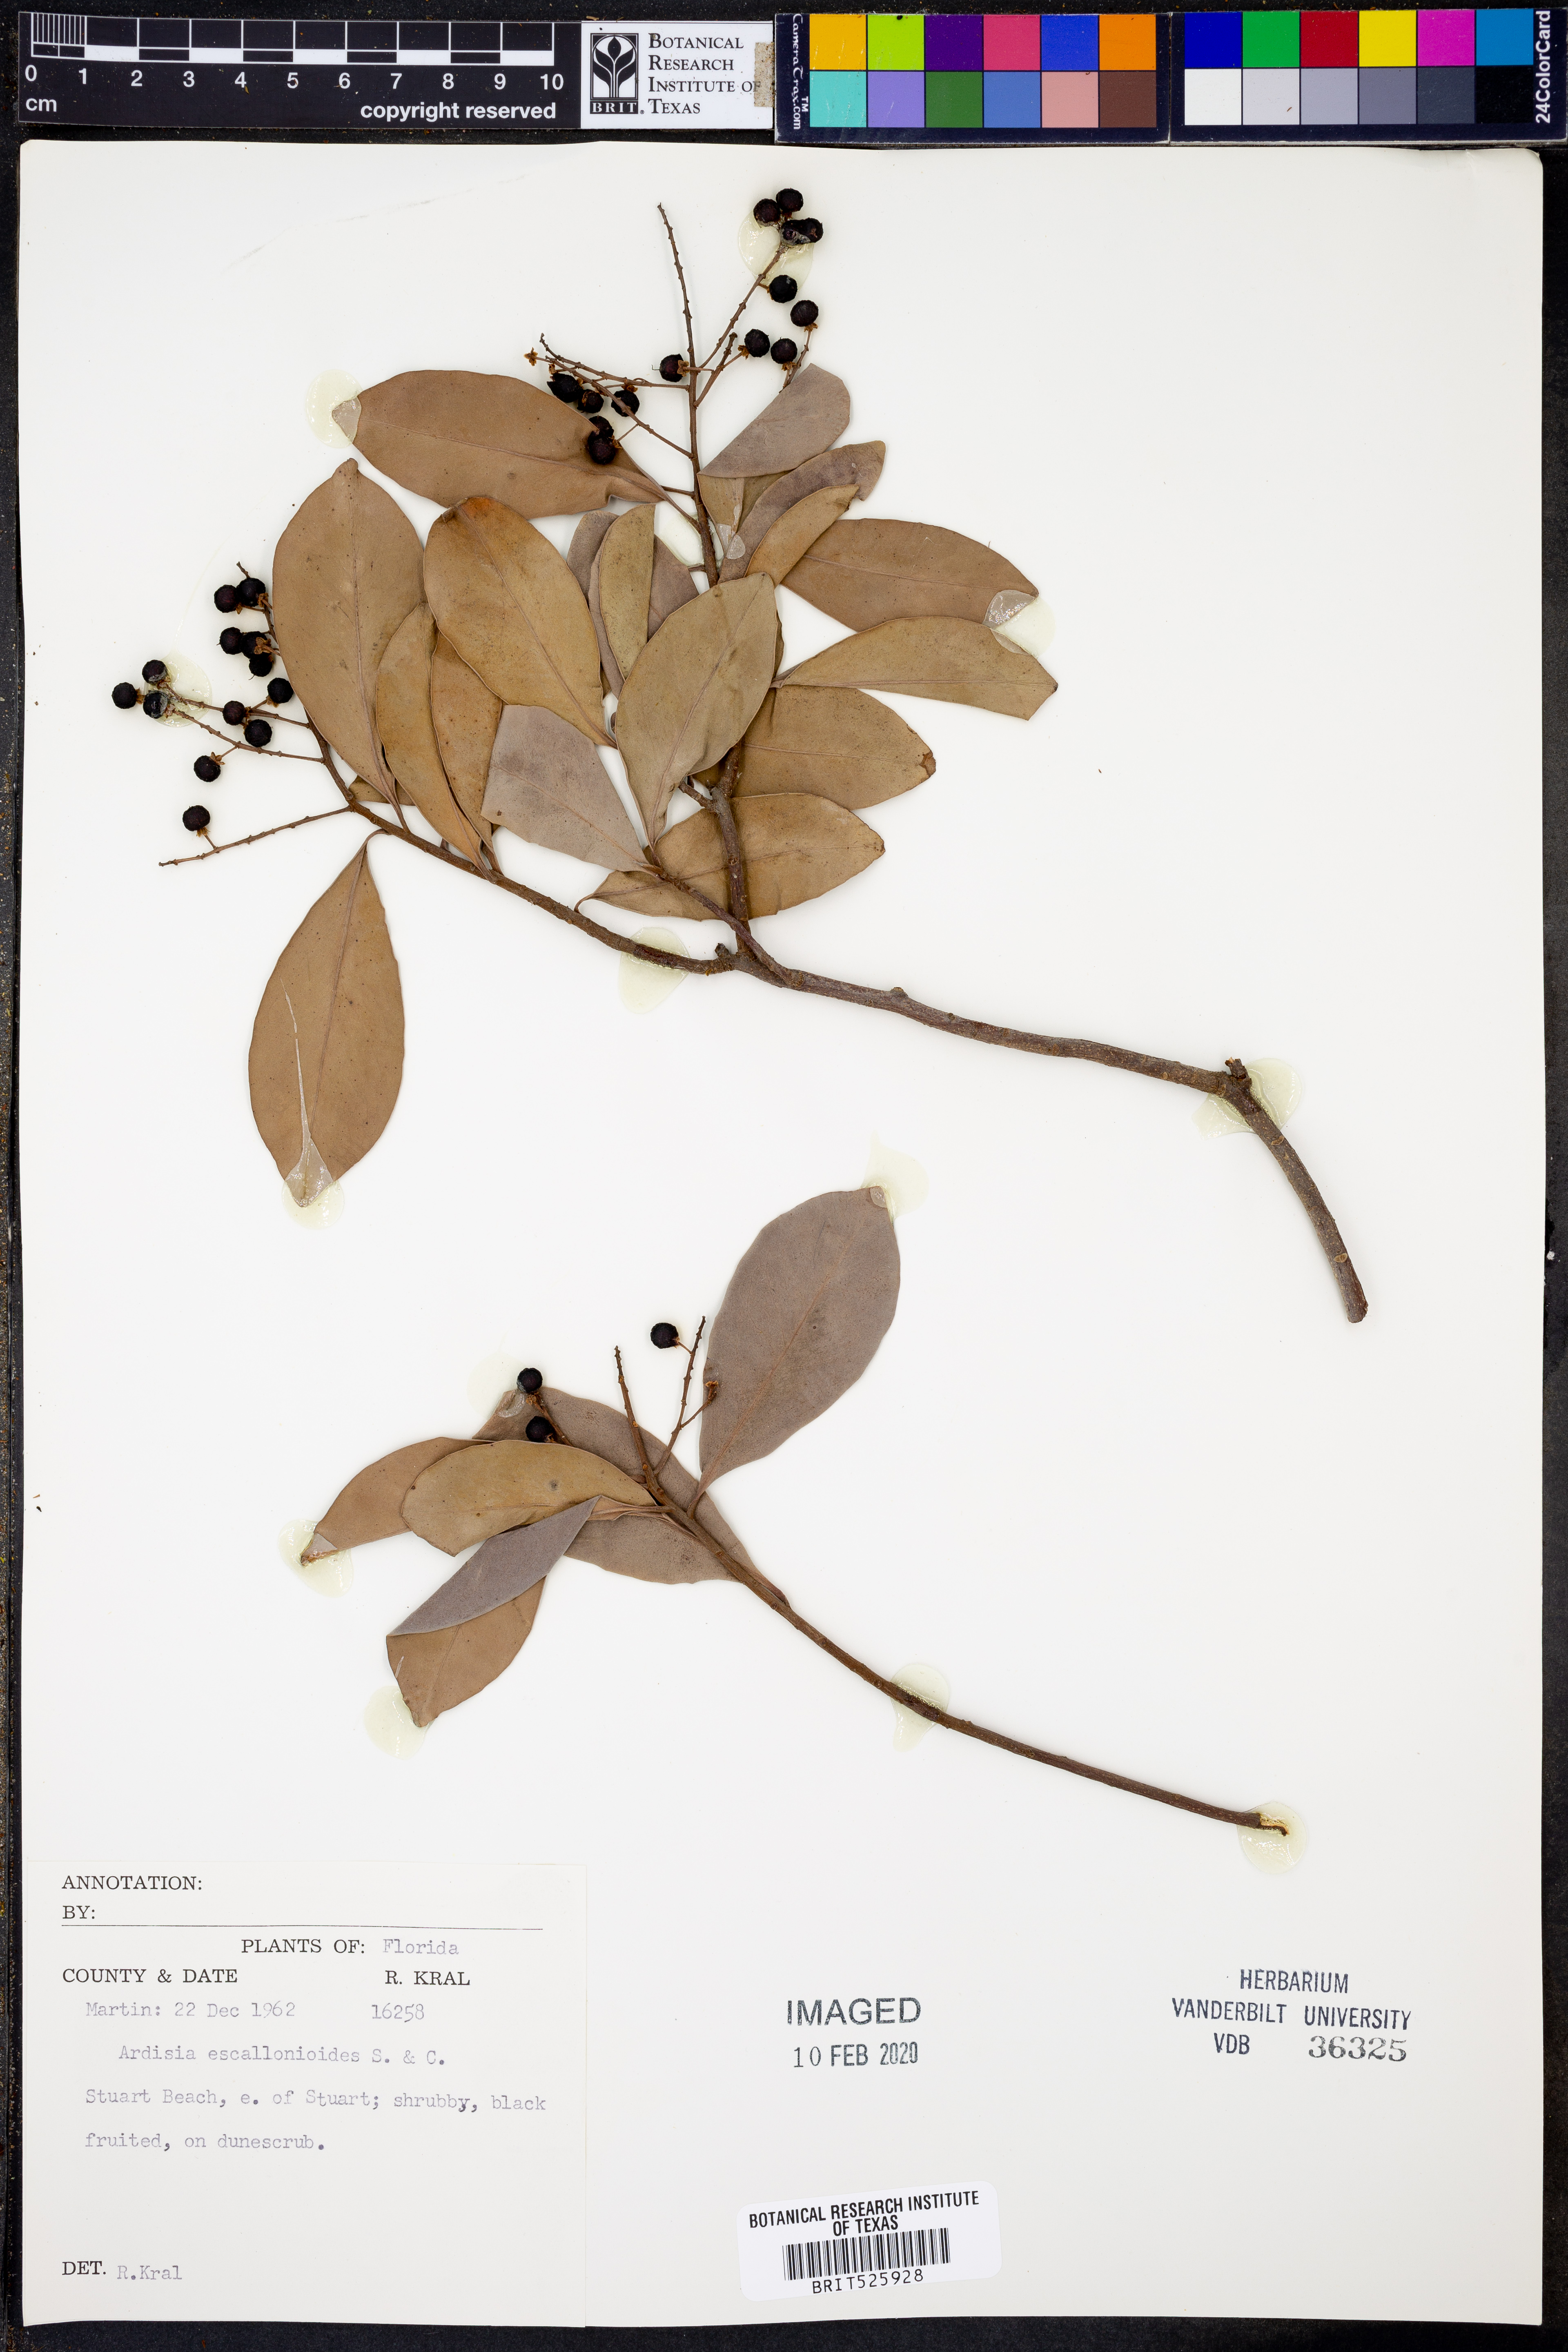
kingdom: Plantae
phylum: Tracheophyta
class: Magnoliopsida
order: Ericales
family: Primulaceae
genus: Ardisia
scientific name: Ardisia escallonioides
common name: Island marlberry
